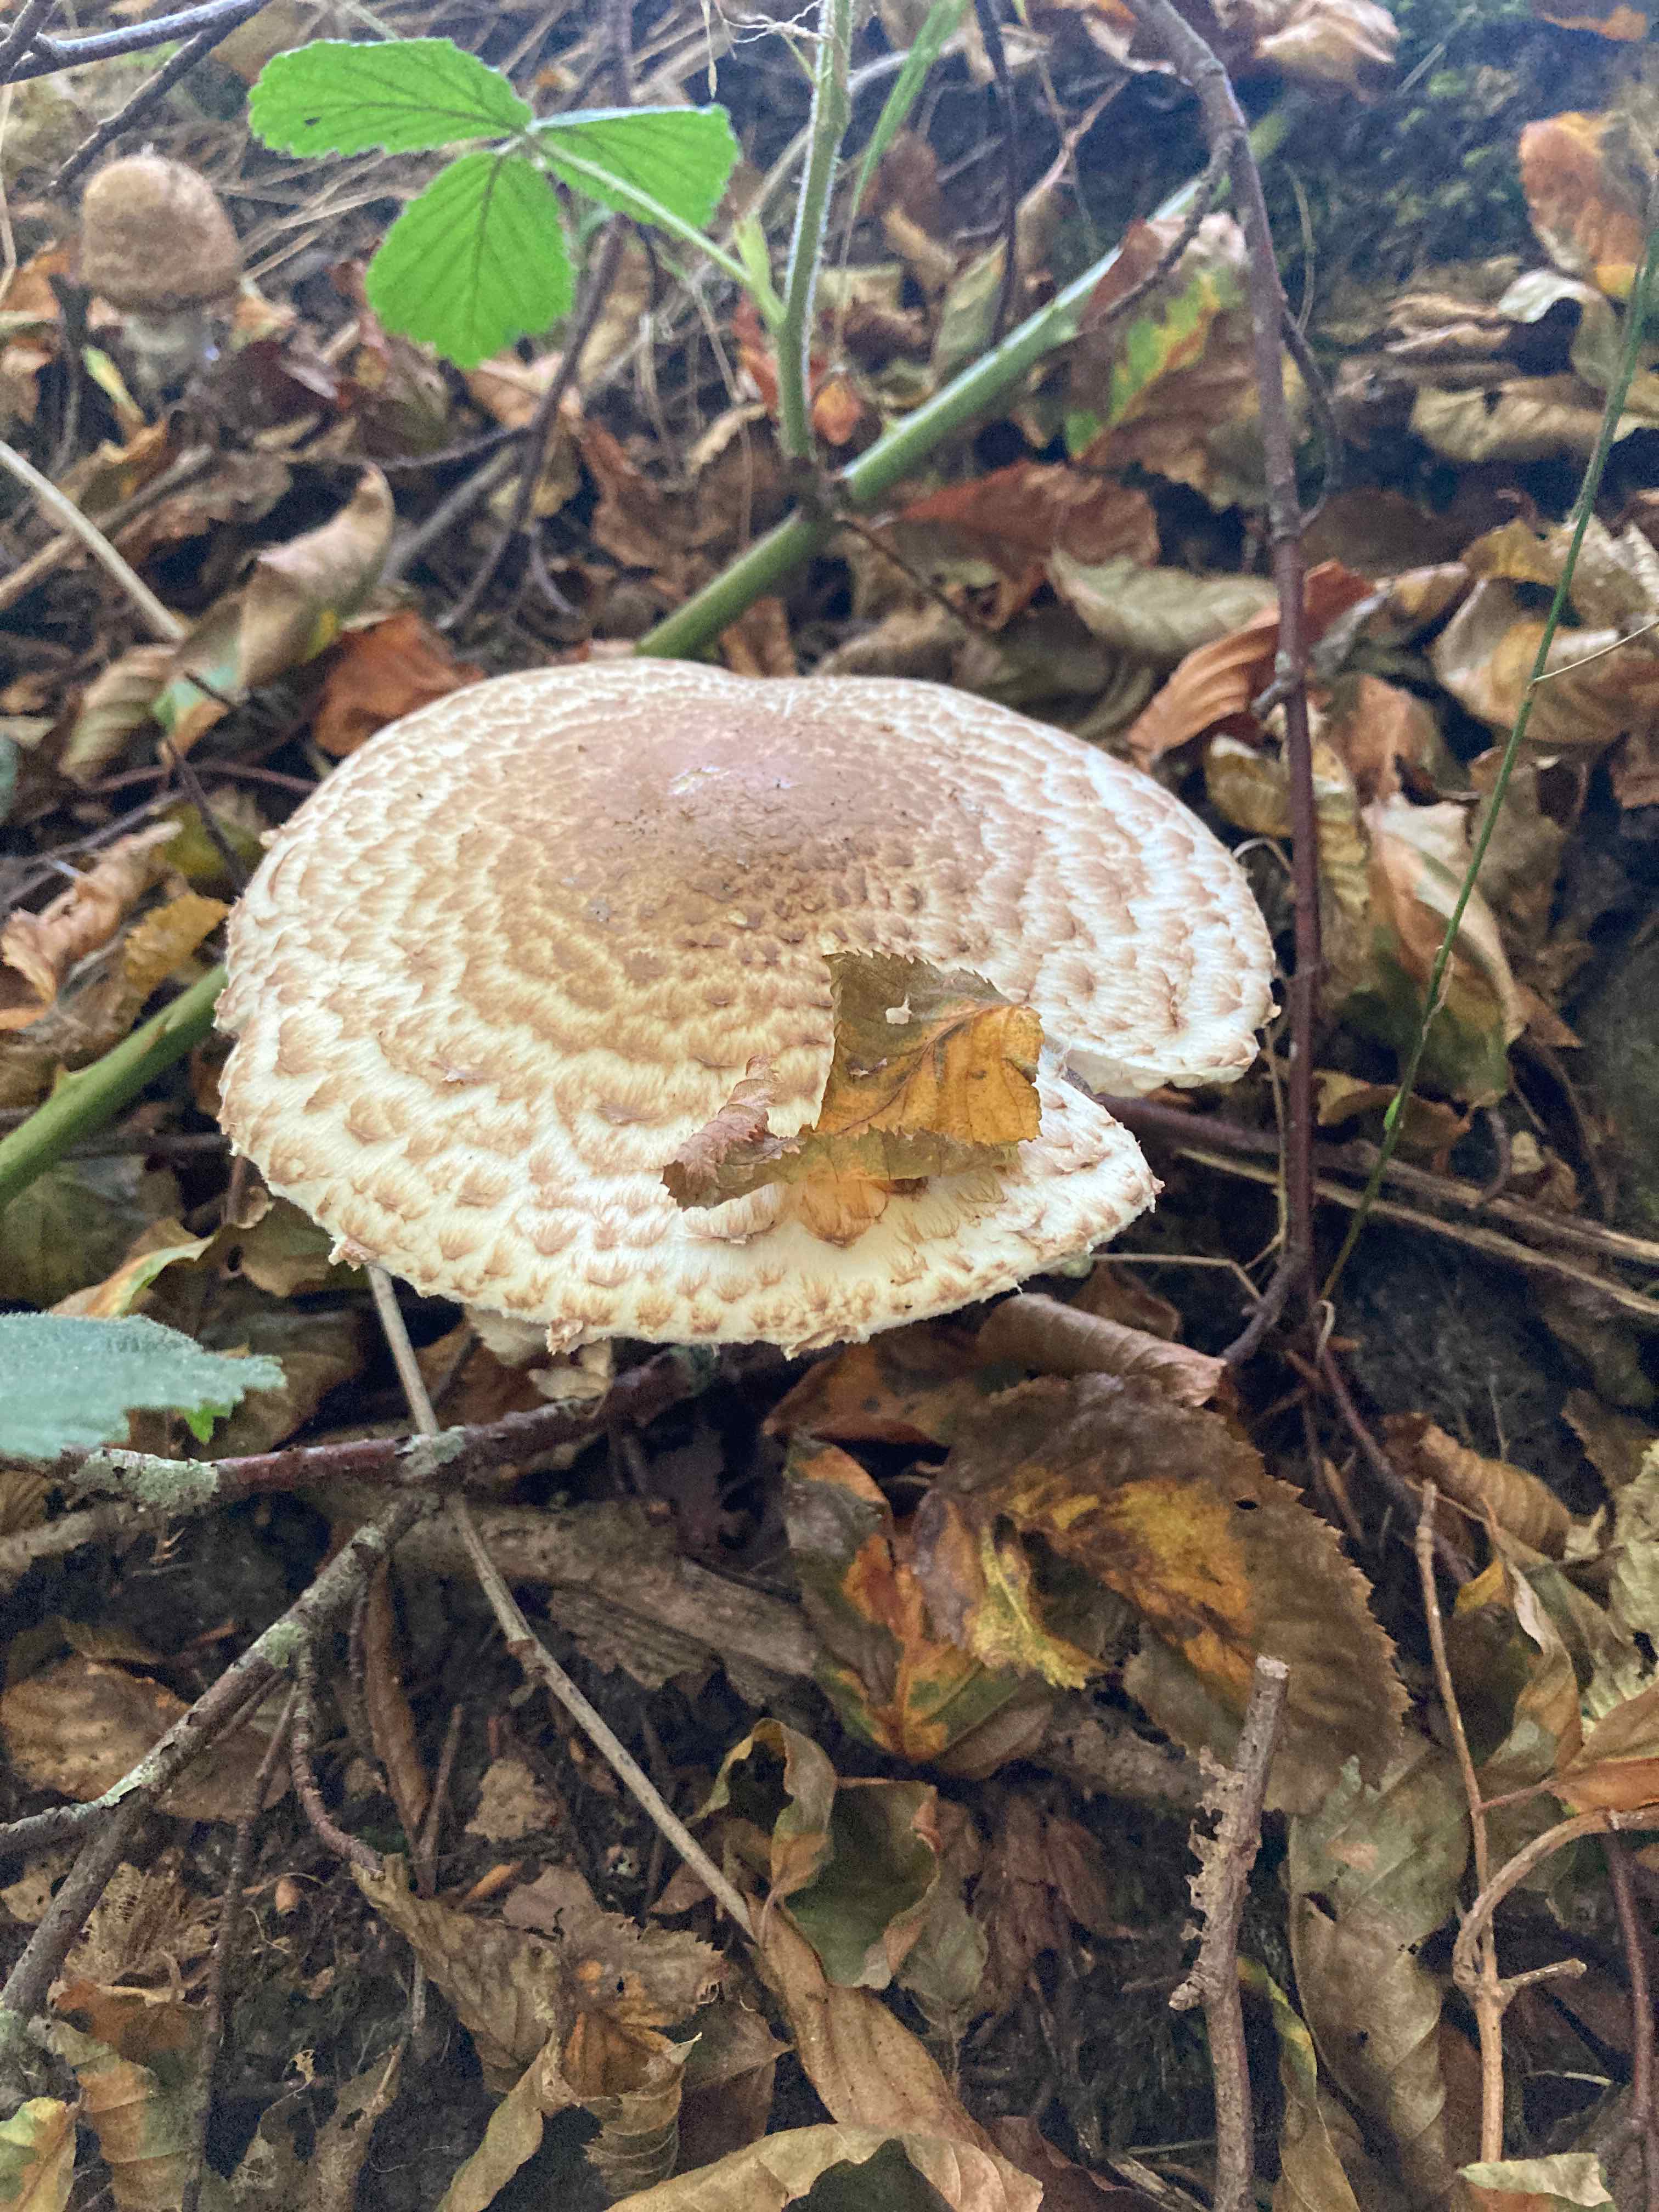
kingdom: Fungi
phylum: Basidiomycota
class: Agaricomycetes
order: Agaricales
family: Agaricaceae
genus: Agaricus
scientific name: Agaricus augustus
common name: prægtig champignon
